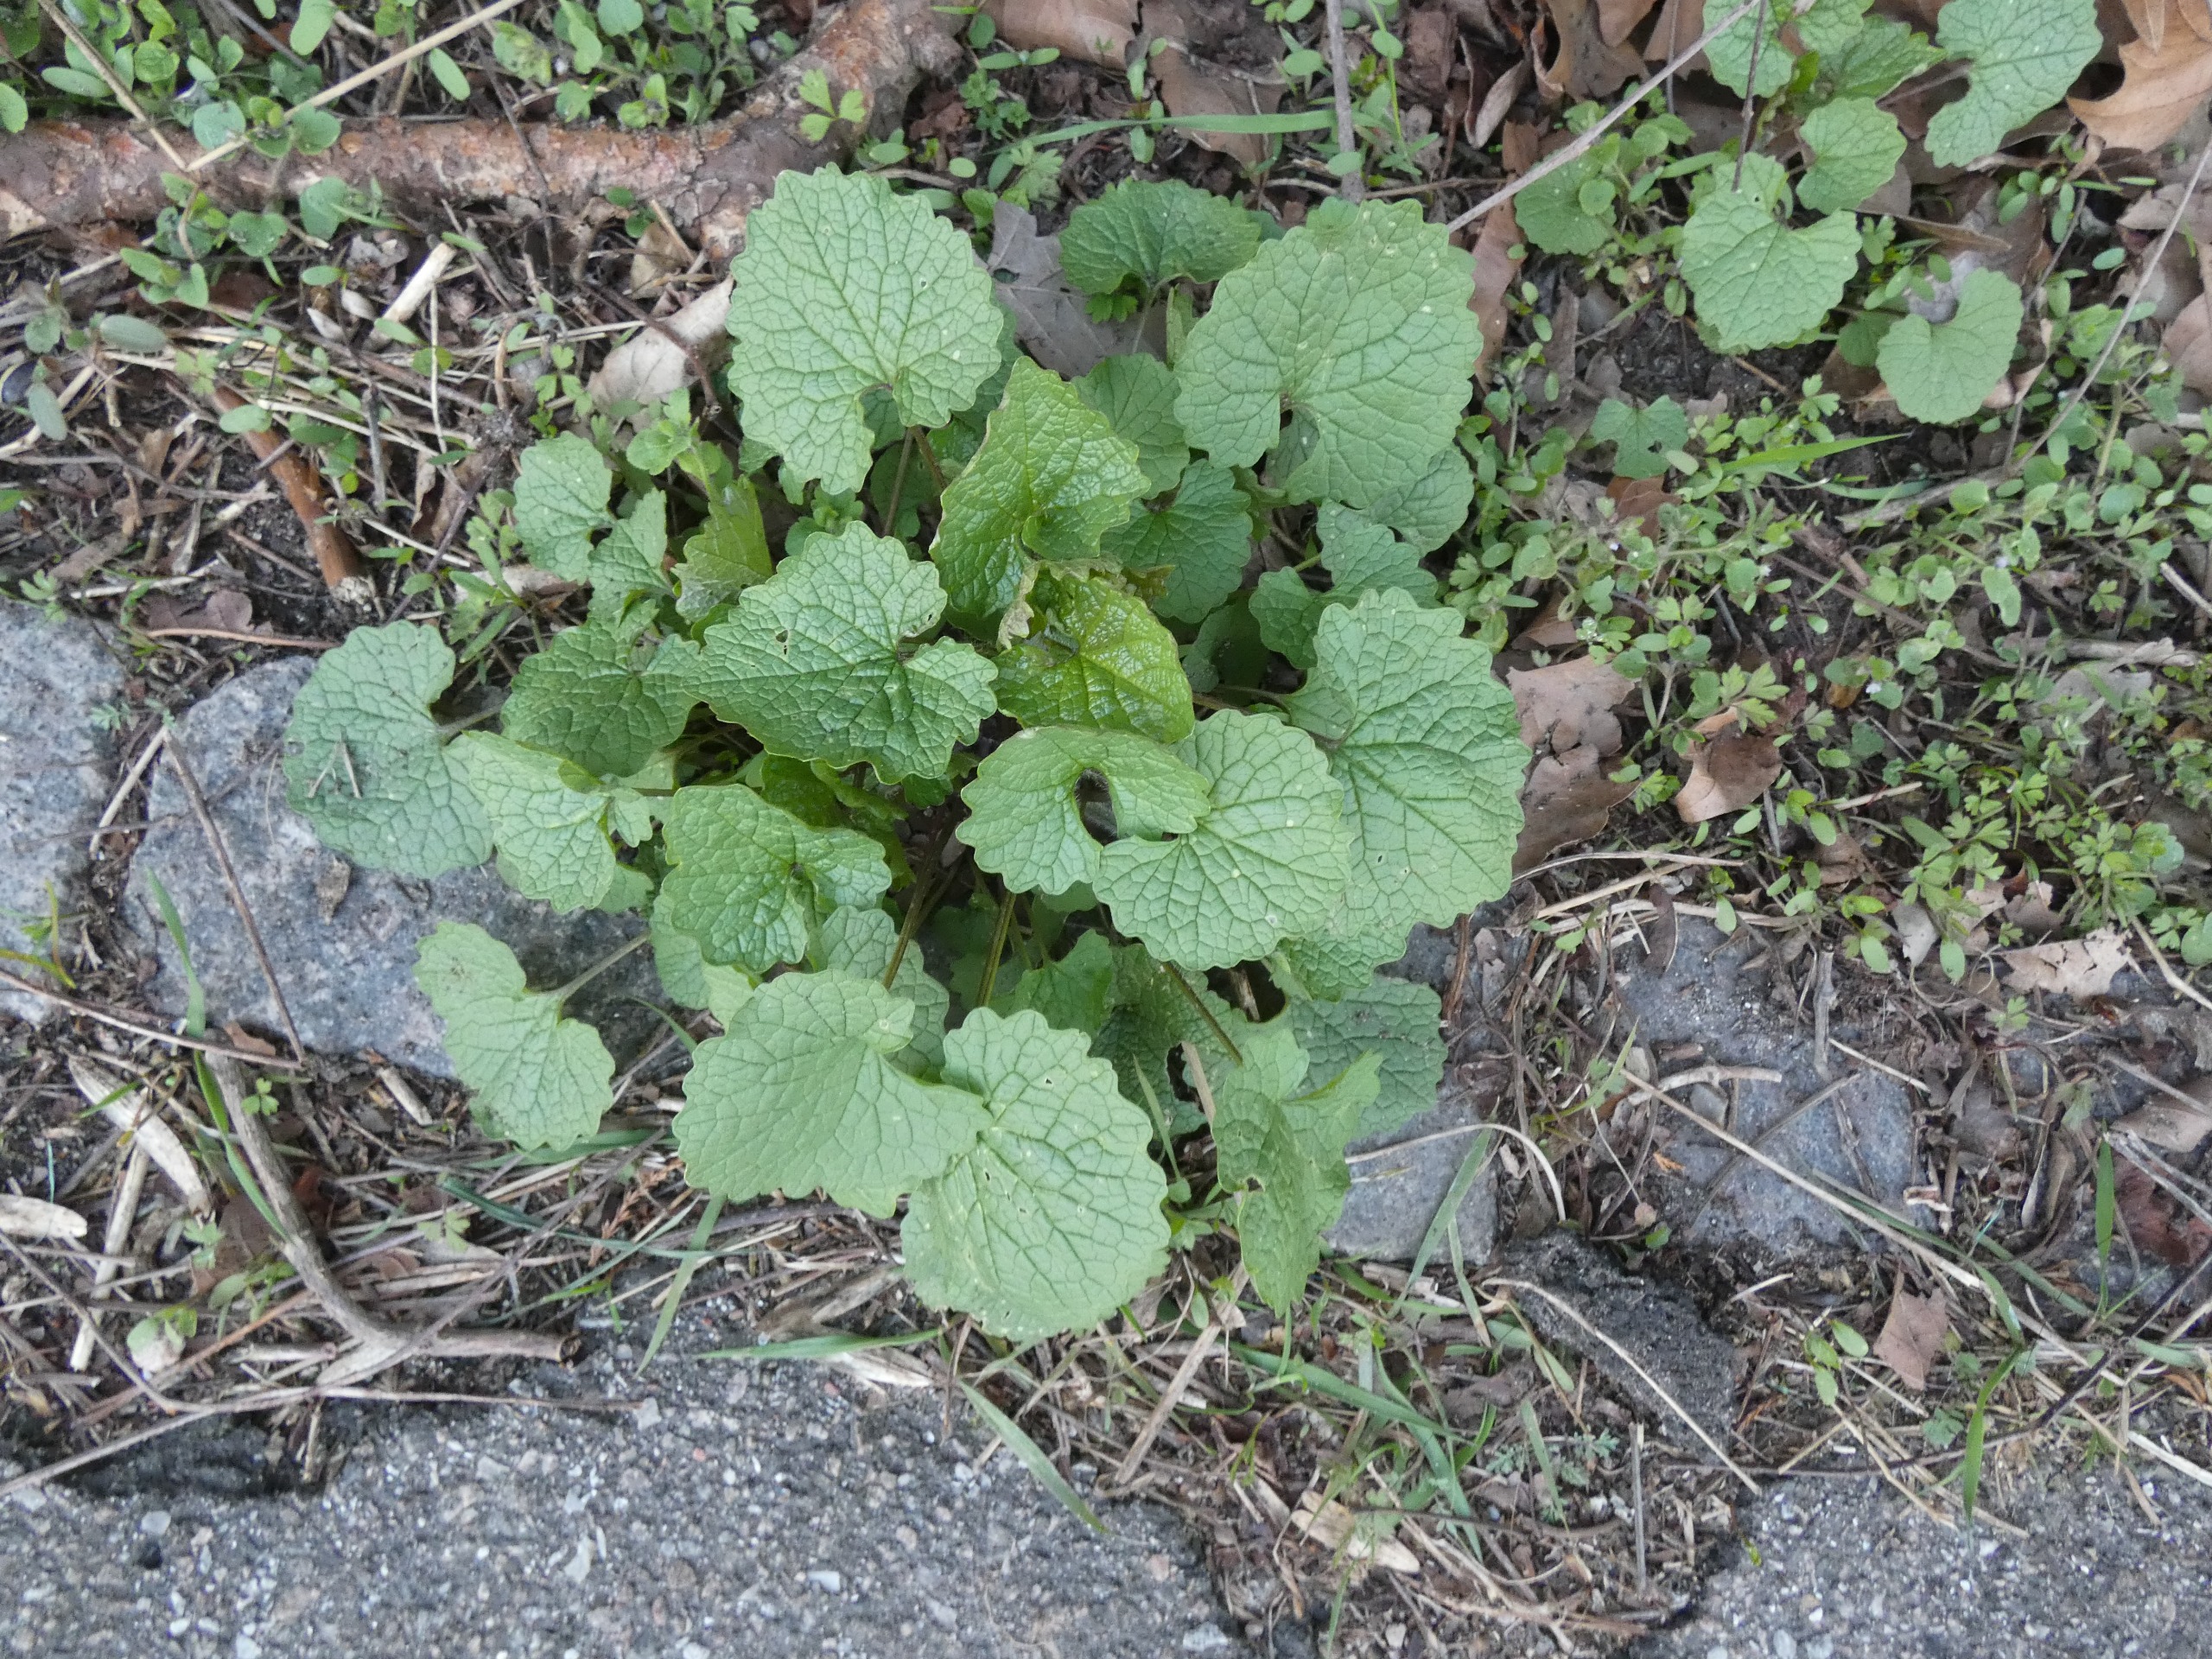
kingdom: Plantae
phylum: Tracheophyta
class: Magnoliopsida
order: Brassicales
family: Brassicaceae
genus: Alliaria
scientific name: Alliaria petiolata
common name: Løgkarse
